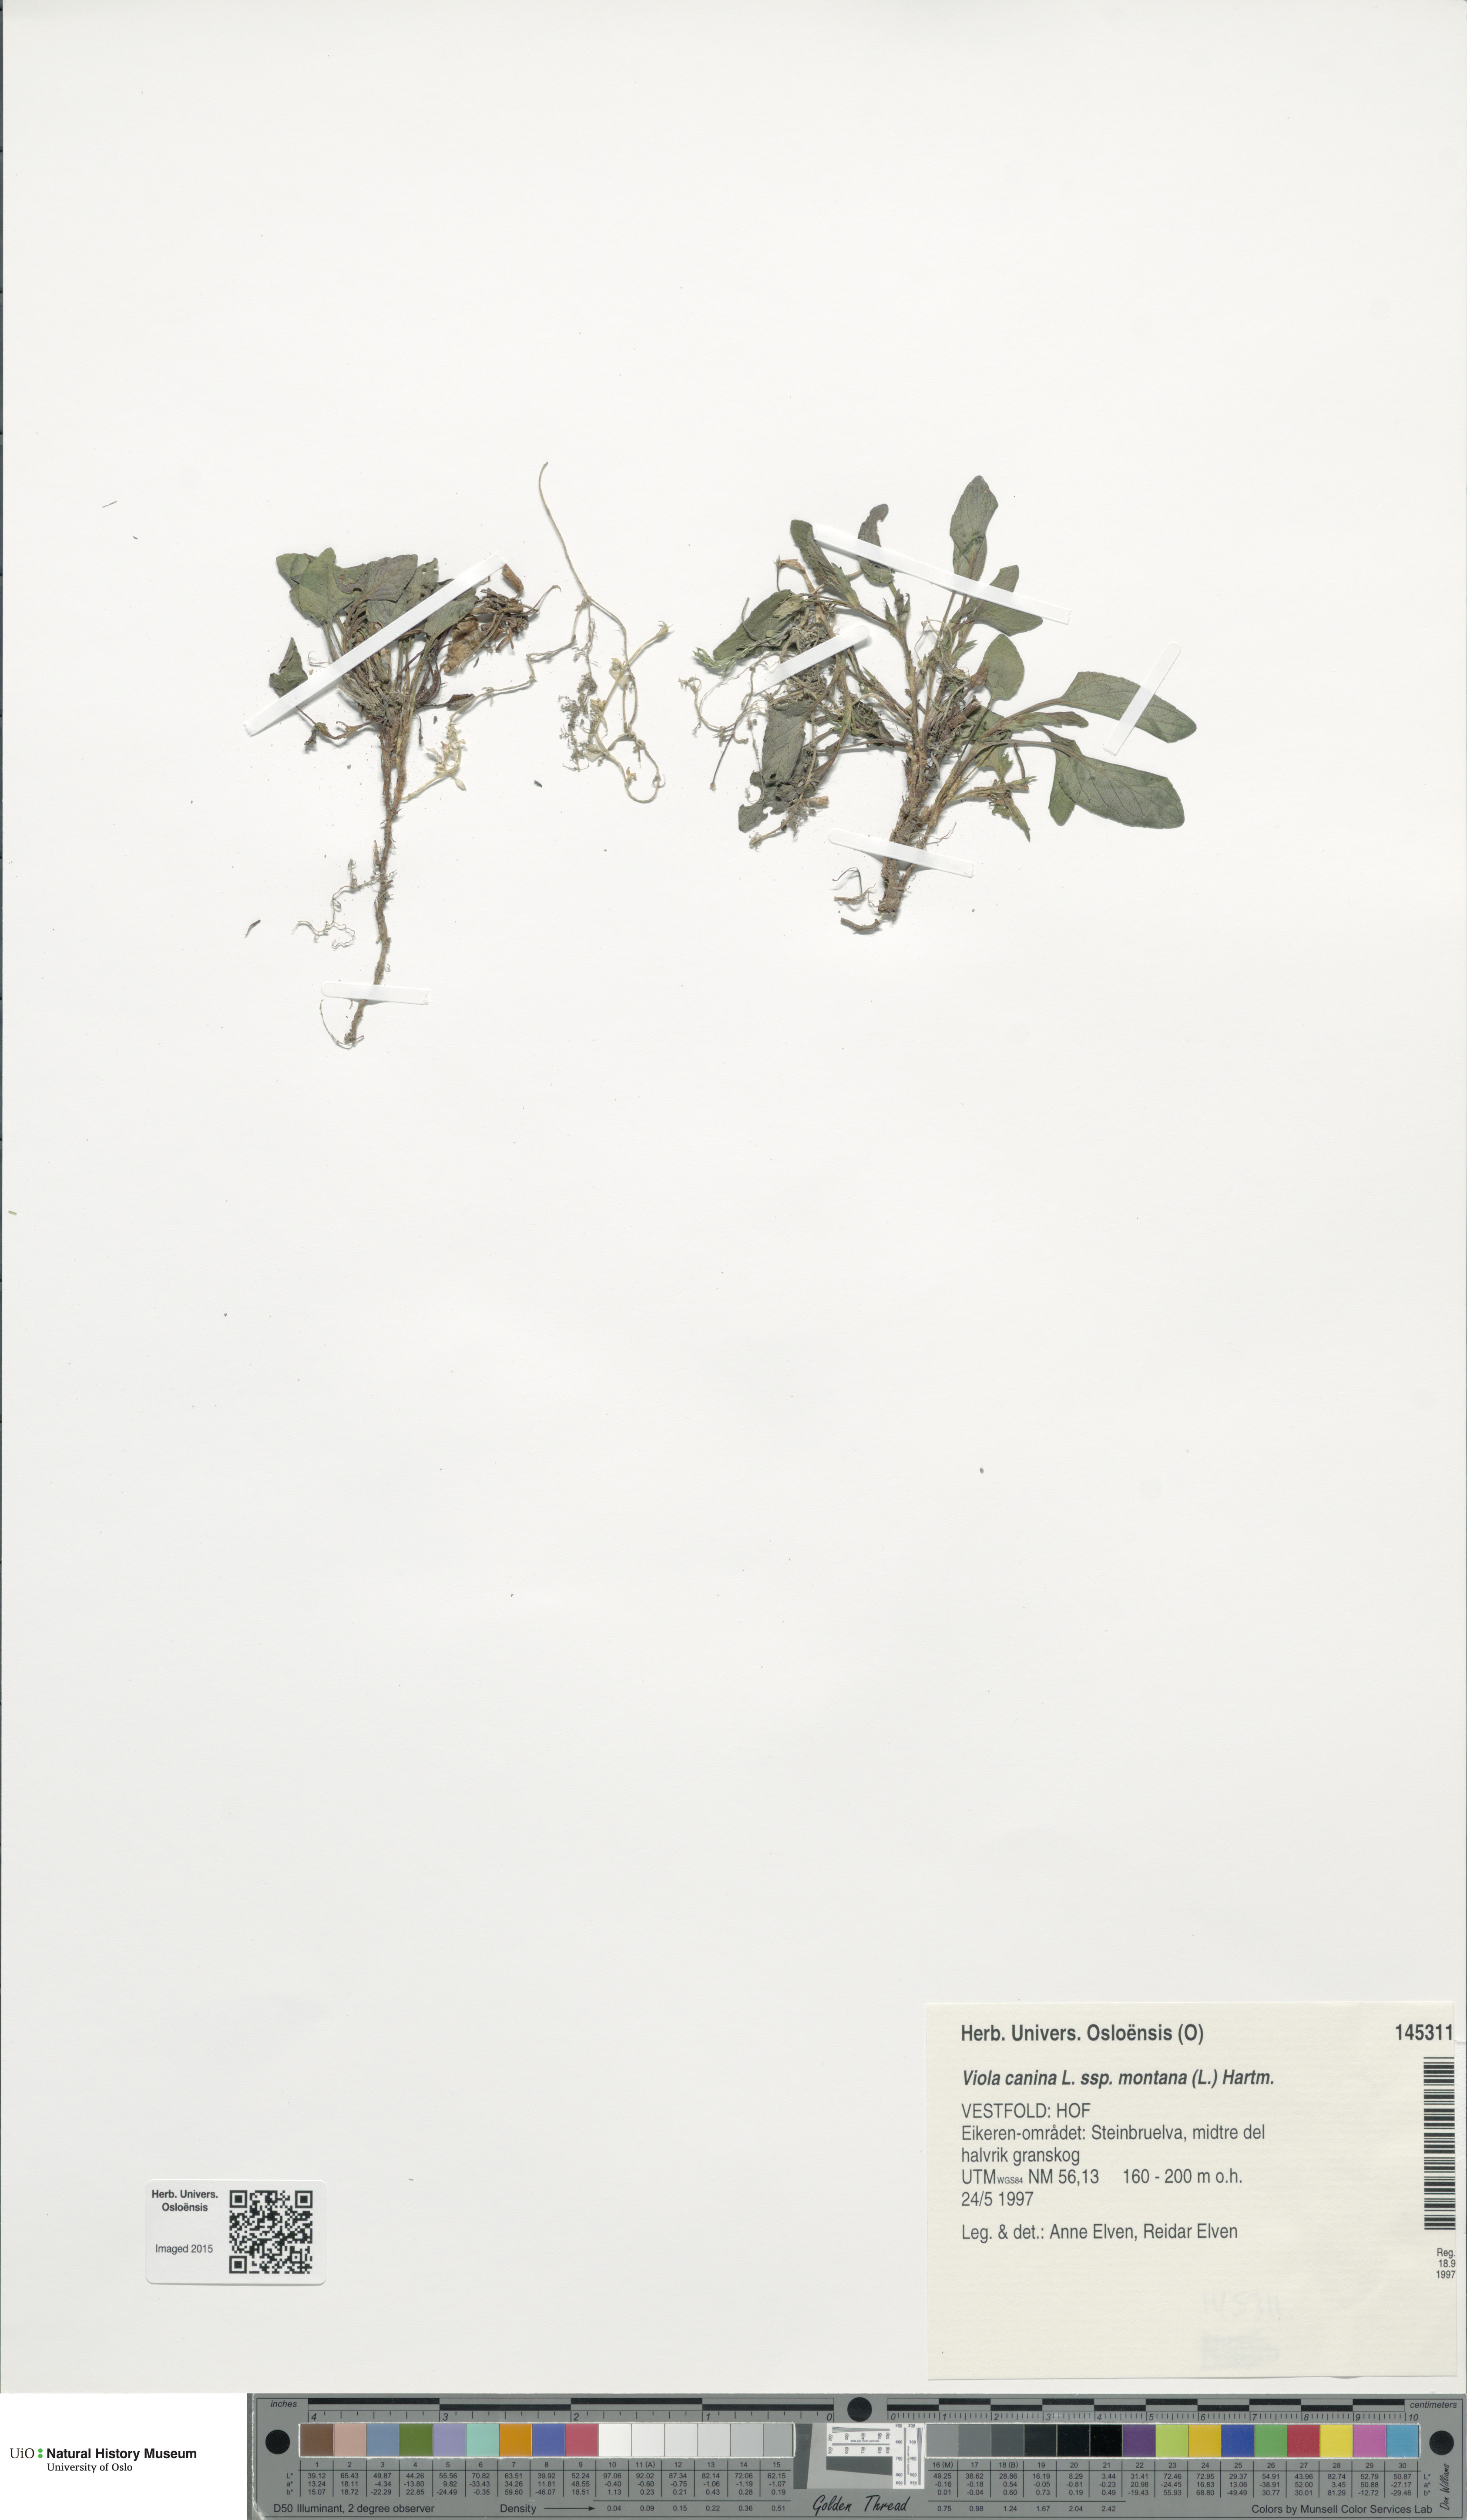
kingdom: Plantae
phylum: Tracheophyta
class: Magnoliopsida
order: Malpighiales
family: Violaceae
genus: Viola
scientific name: Viola ruppii
